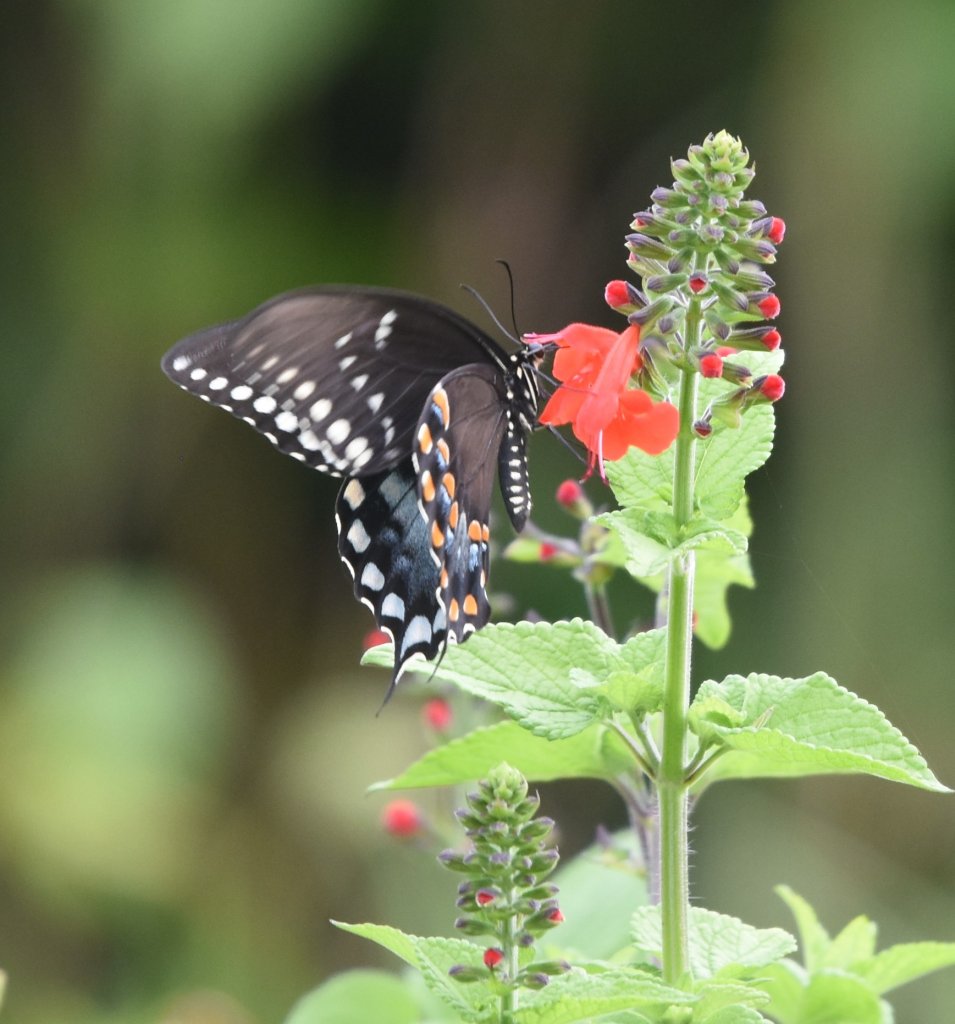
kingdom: Animalia
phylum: Arthropoda
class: Insecta
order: Lepidoptera
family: Papilionidae
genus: Papilio
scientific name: Papilio
